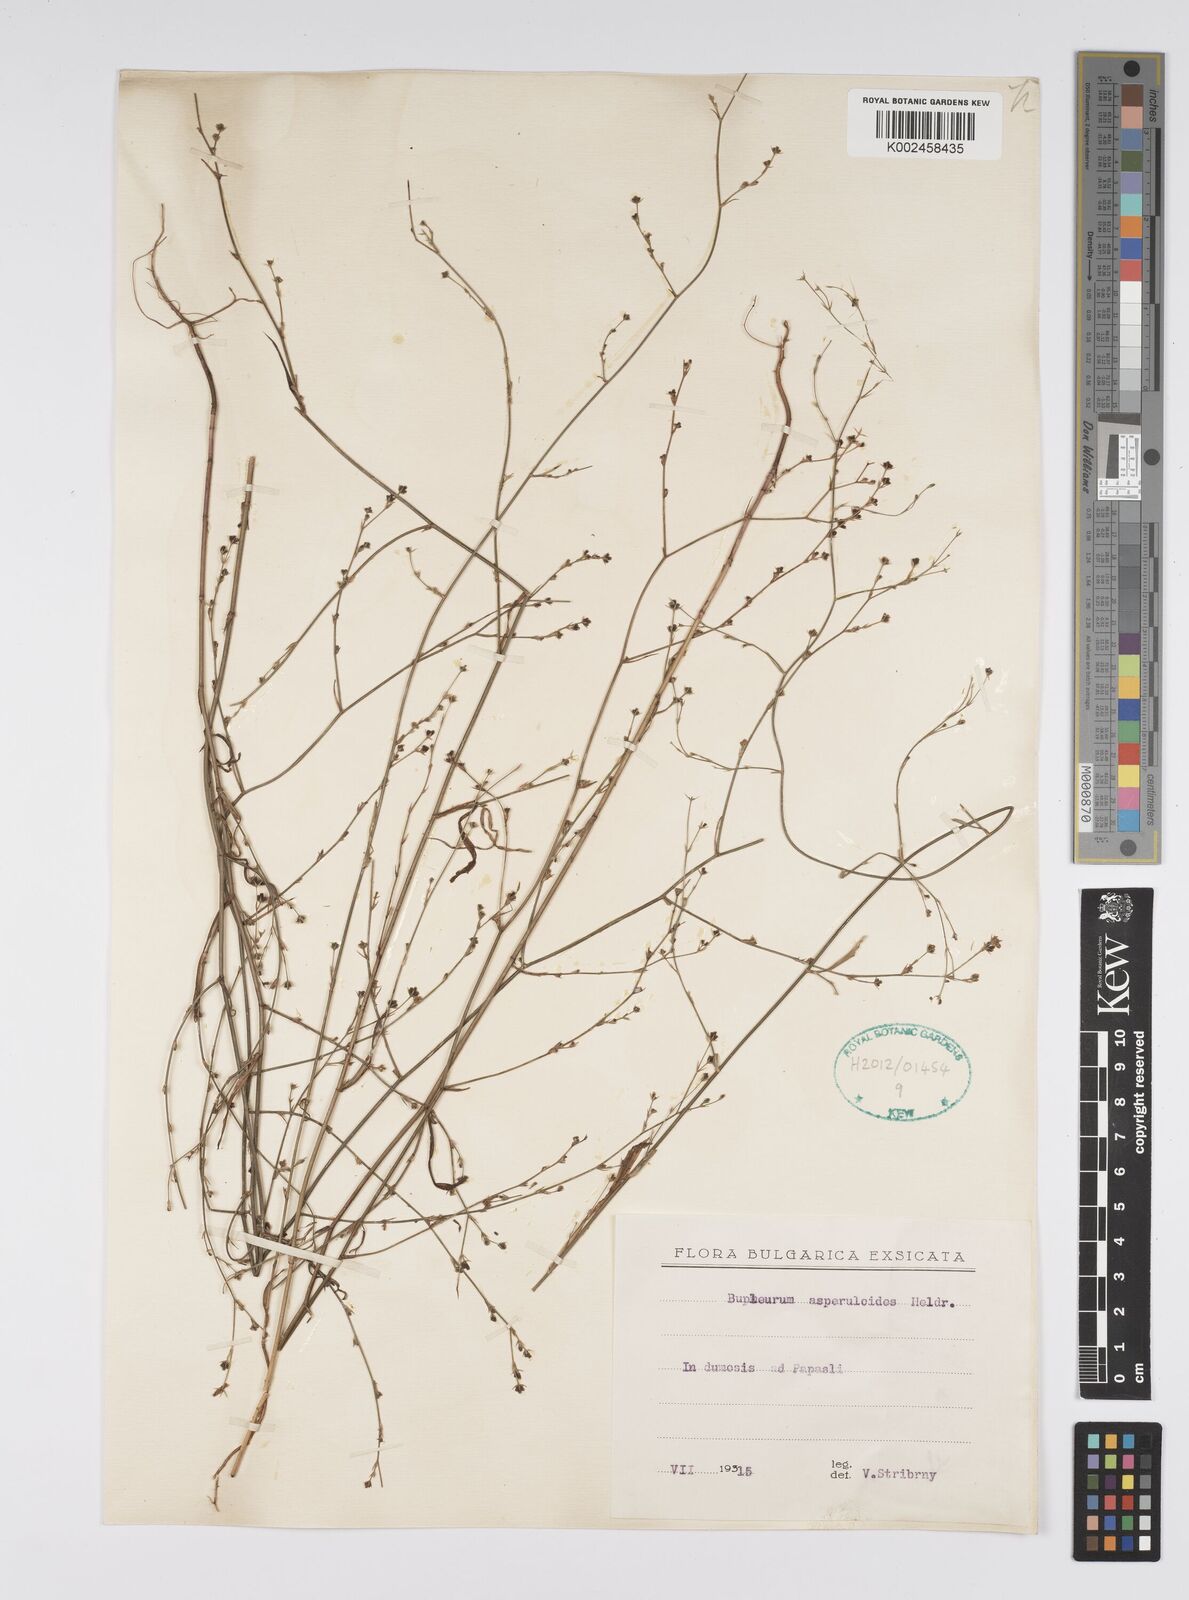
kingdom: Plantae
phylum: Tracheophyta
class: Magnoliopsida
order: Apiales
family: Apiaceae
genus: Bupleurum
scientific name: Bupleurum asperuloides
